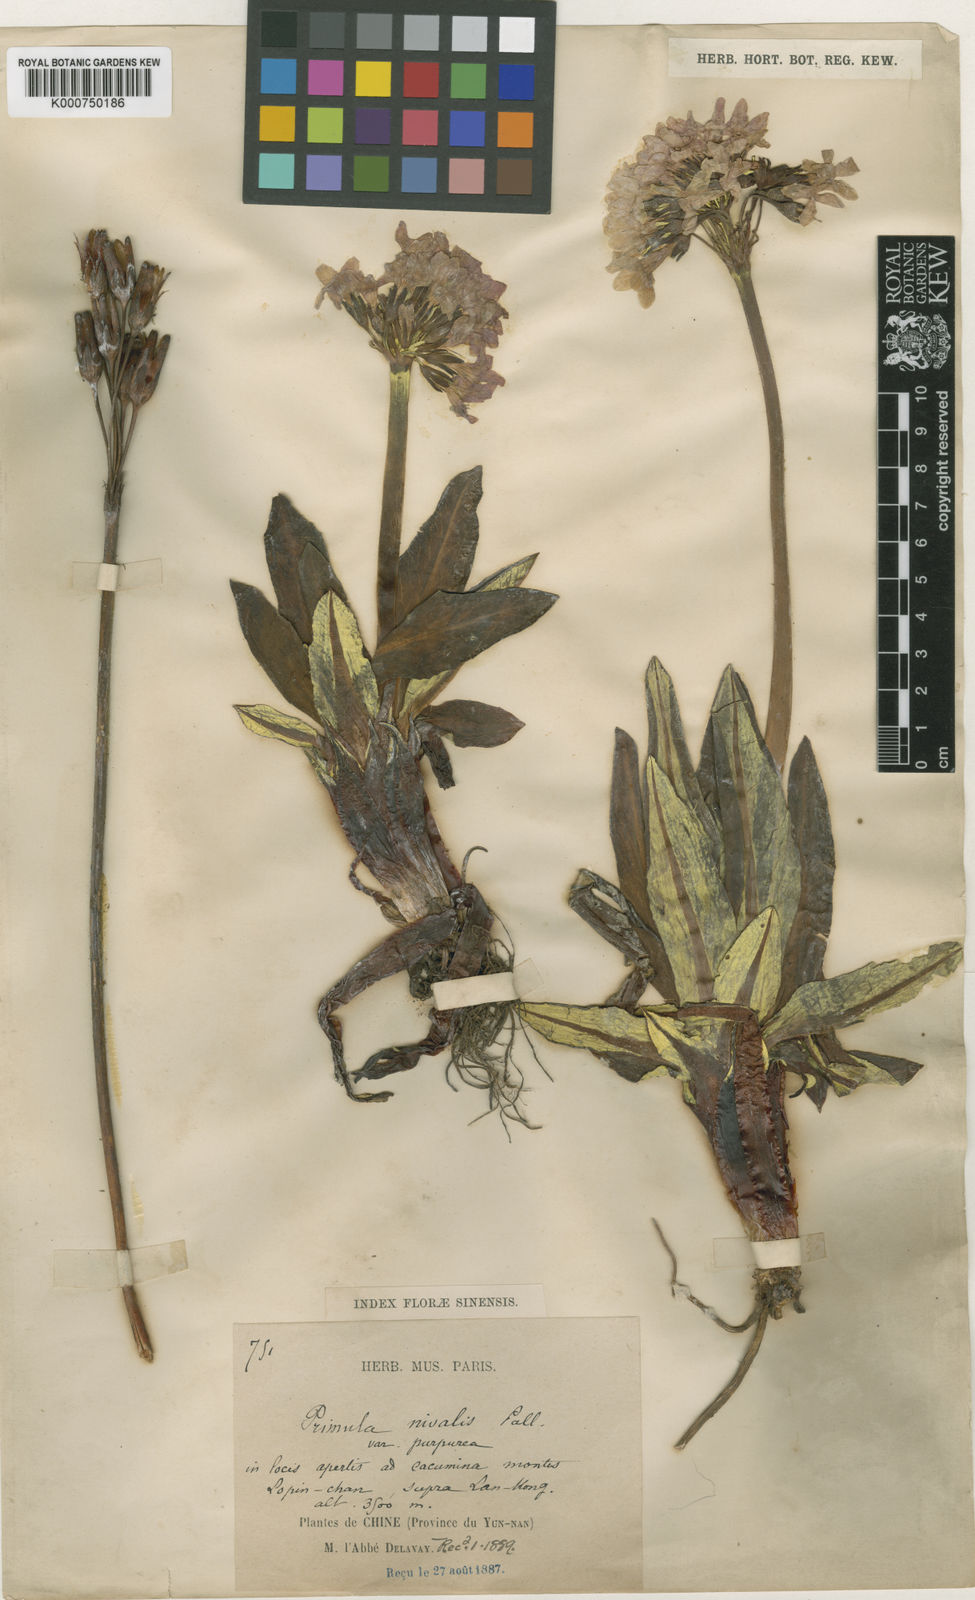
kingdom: Plantae
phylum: Tracheophyta
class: Magnoliopsida
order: Ericales
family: Primulaceae
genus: Primula
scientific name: Primula
